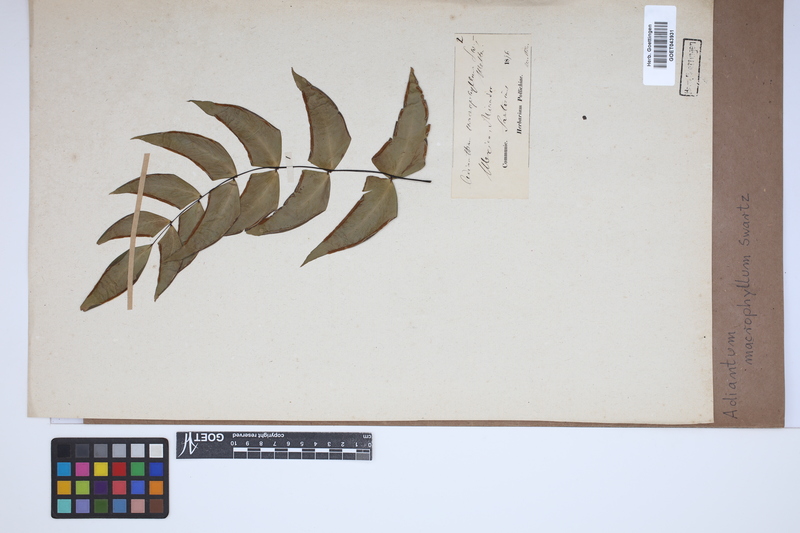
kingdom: Plantae
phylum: Tracheophyta
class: Polypodiopsida
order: Polypodiales
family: Pteridaceae
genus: Adiantum
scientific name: Adiantum macrophyllum
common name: Largeleaf maidenhair
